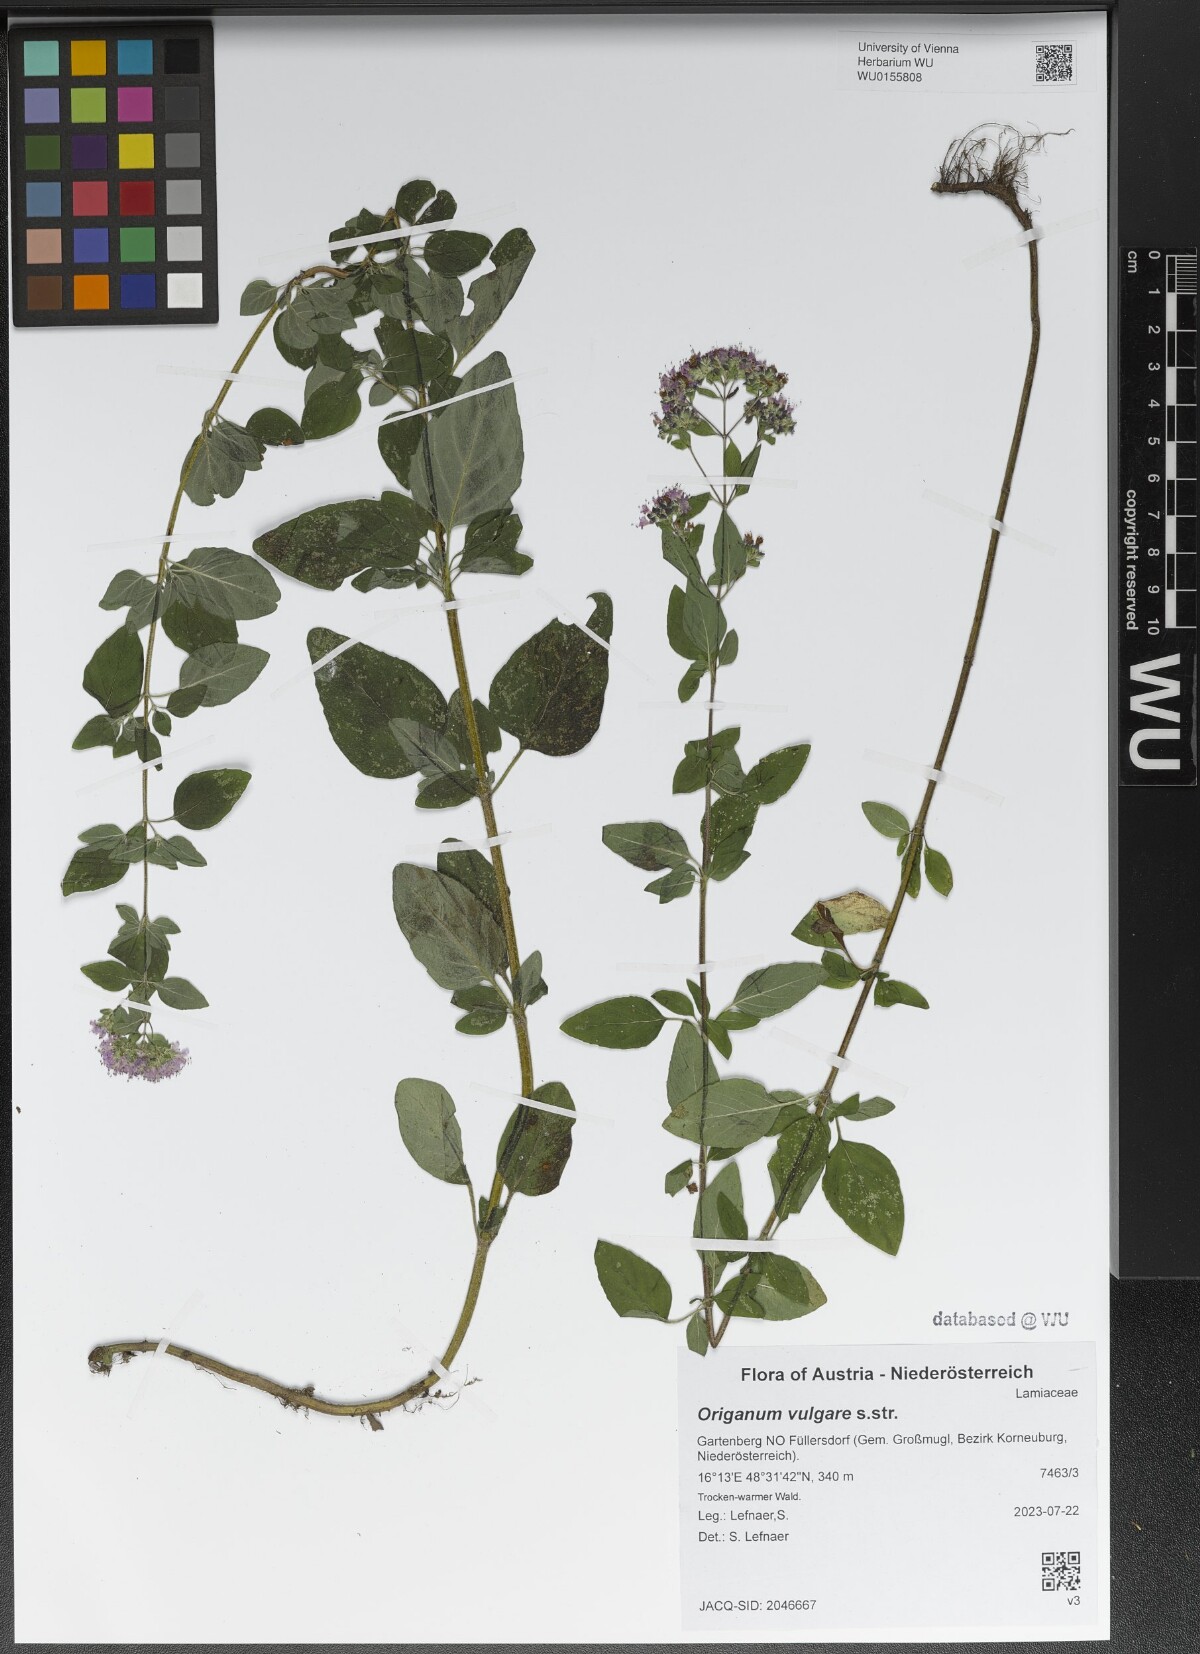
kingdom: Plantae
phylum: Tracheophyta
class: Magnoliopsida
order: Lamiales
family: Lamiaceae
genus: Origanum
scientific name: Origanum vulgare
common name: Wild marjoram
